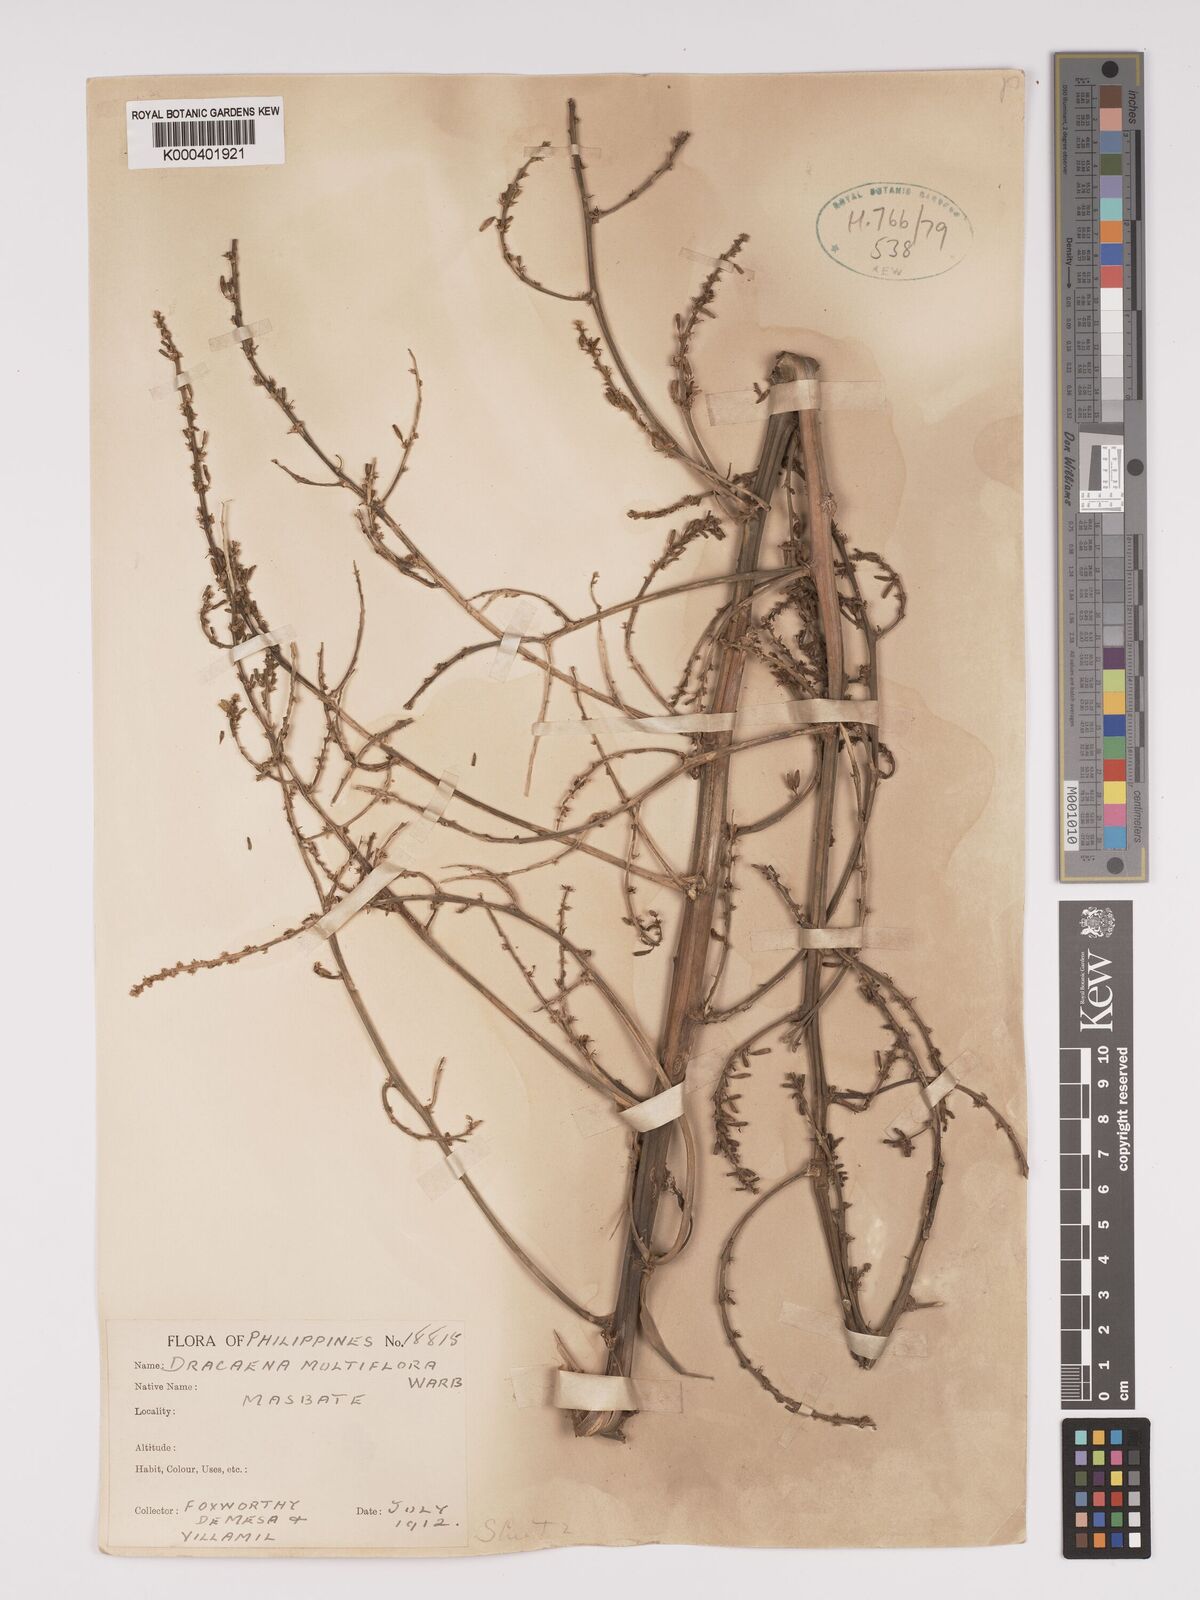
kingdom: Plantae
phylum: Tracheophyta
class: Liliopsida
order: Asparagales
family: Asparagaceae
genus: Dracaena
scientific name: Dracaena multiflora
